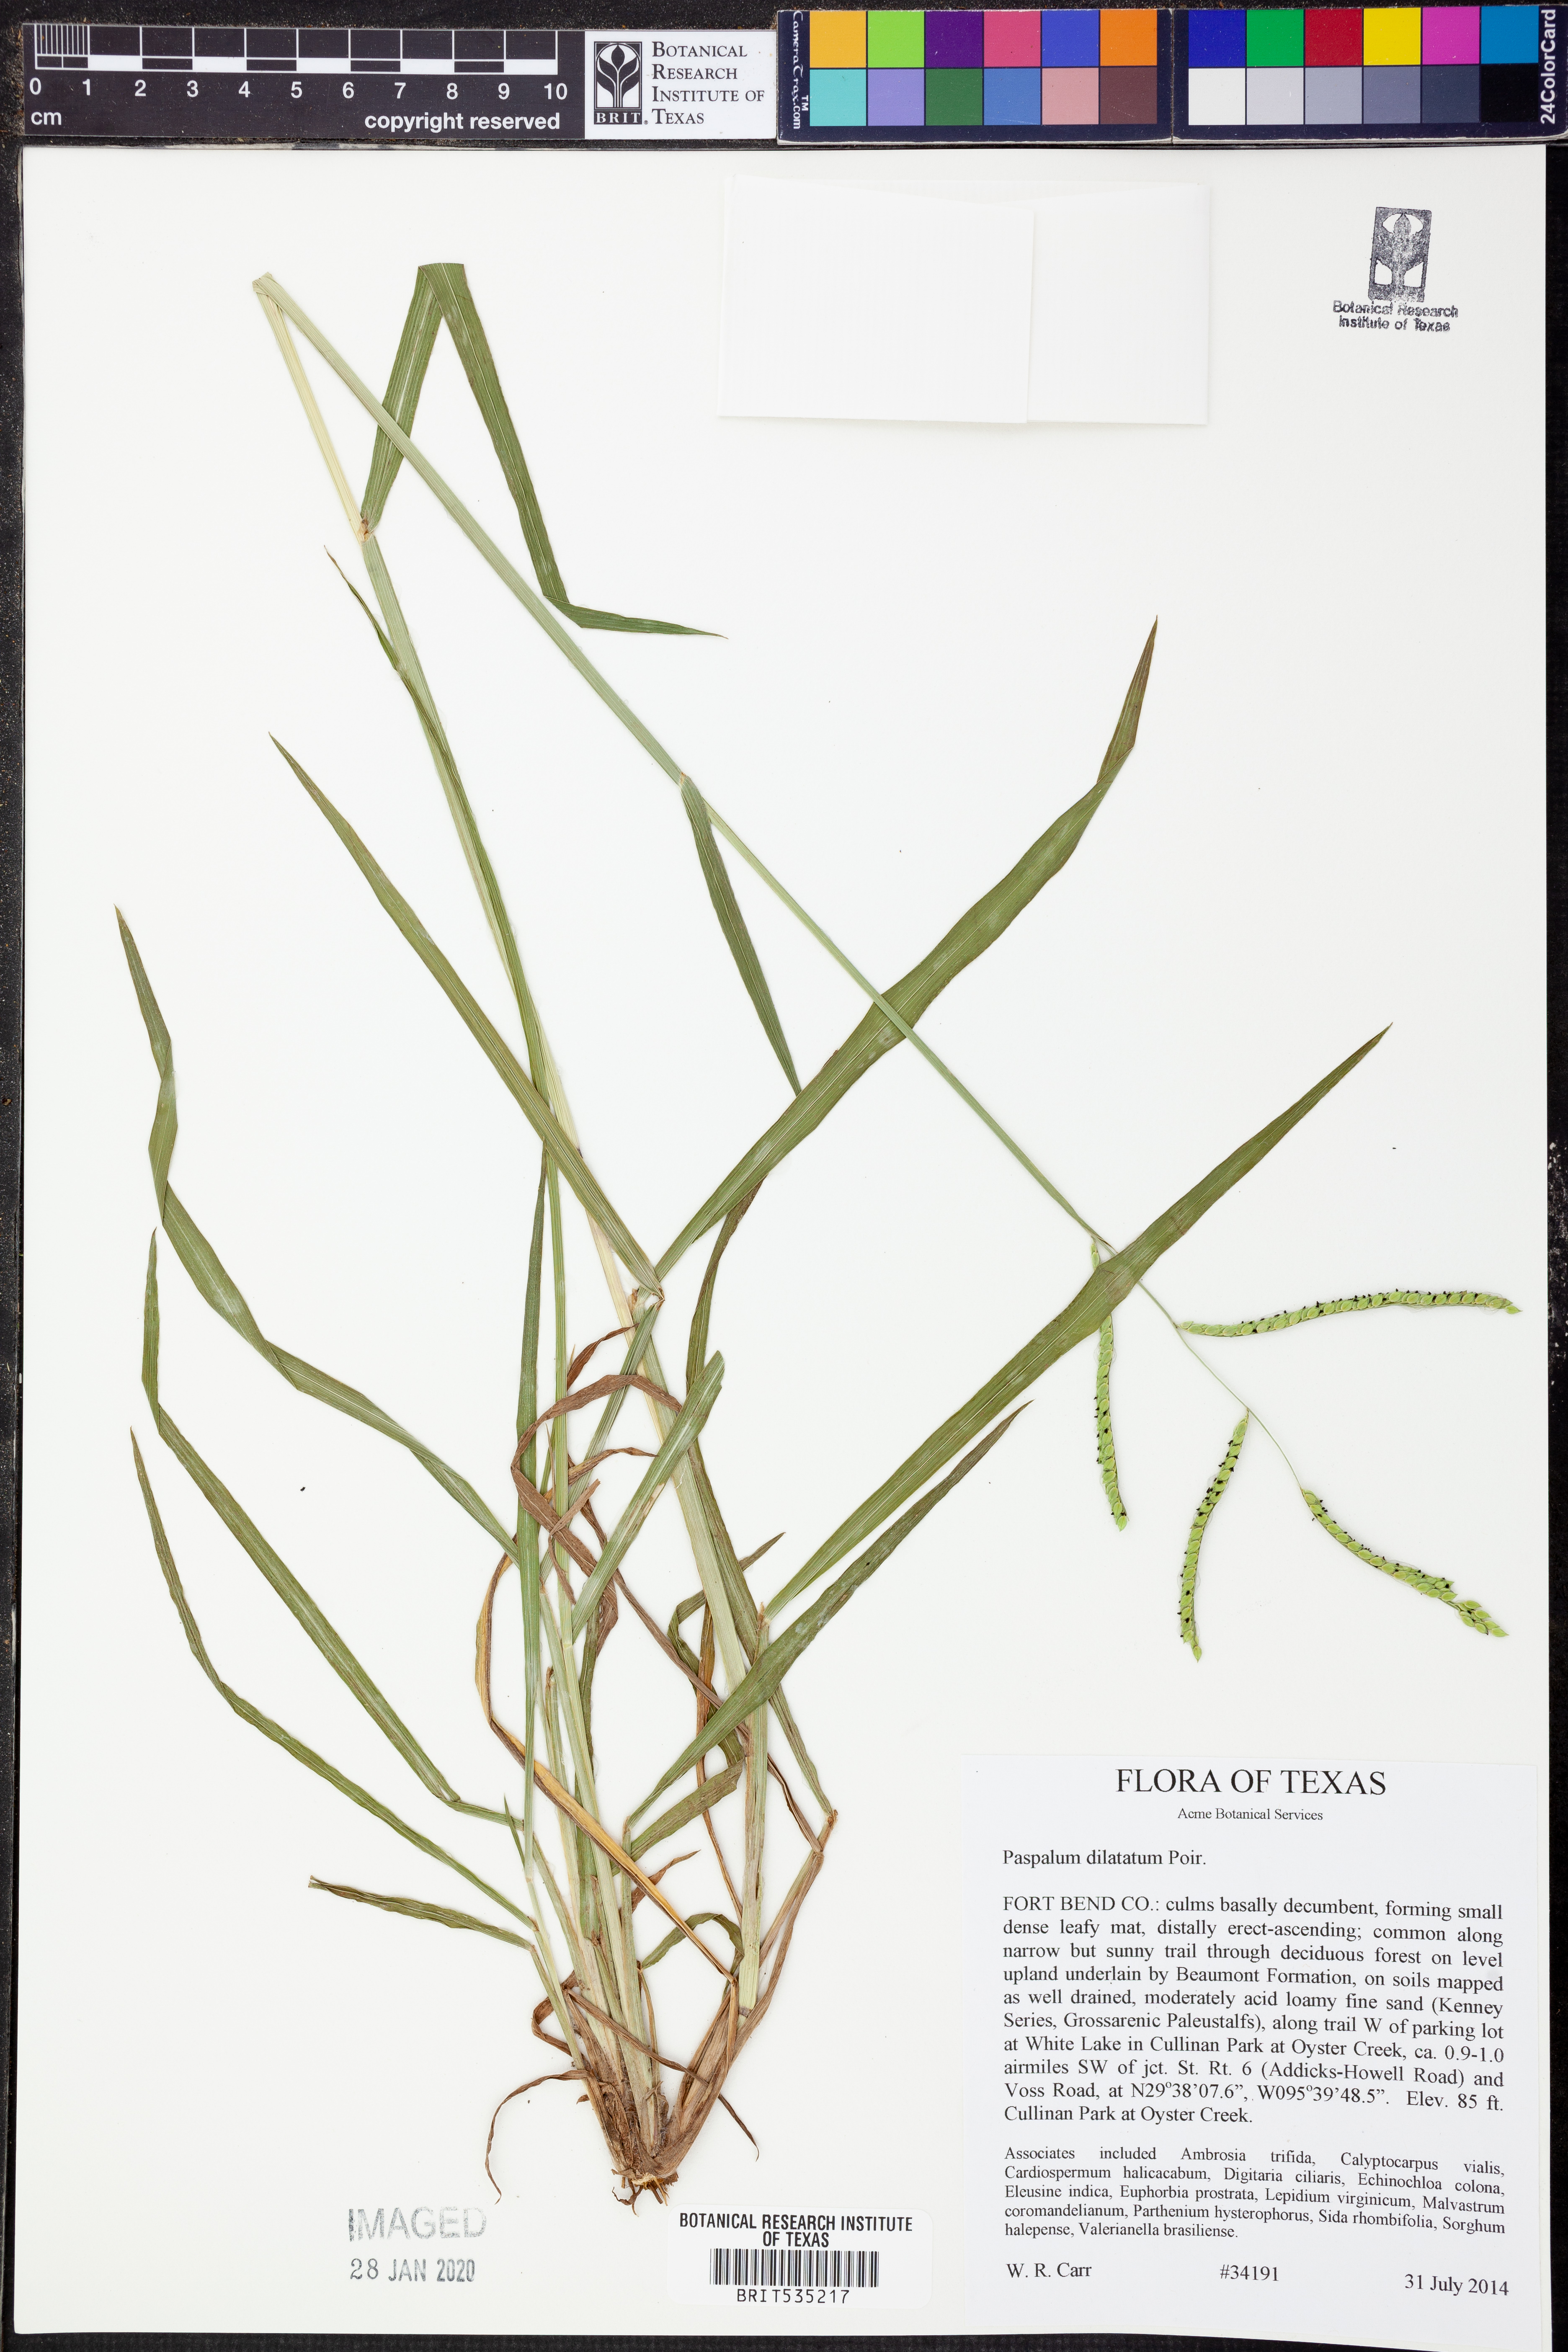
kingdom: Plantae
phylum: Tracheophyta
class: Liliopsida
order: Poales
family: Poaceae
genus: Paspalum
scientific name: Paspalum dilatatum
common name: Dallisgrass
